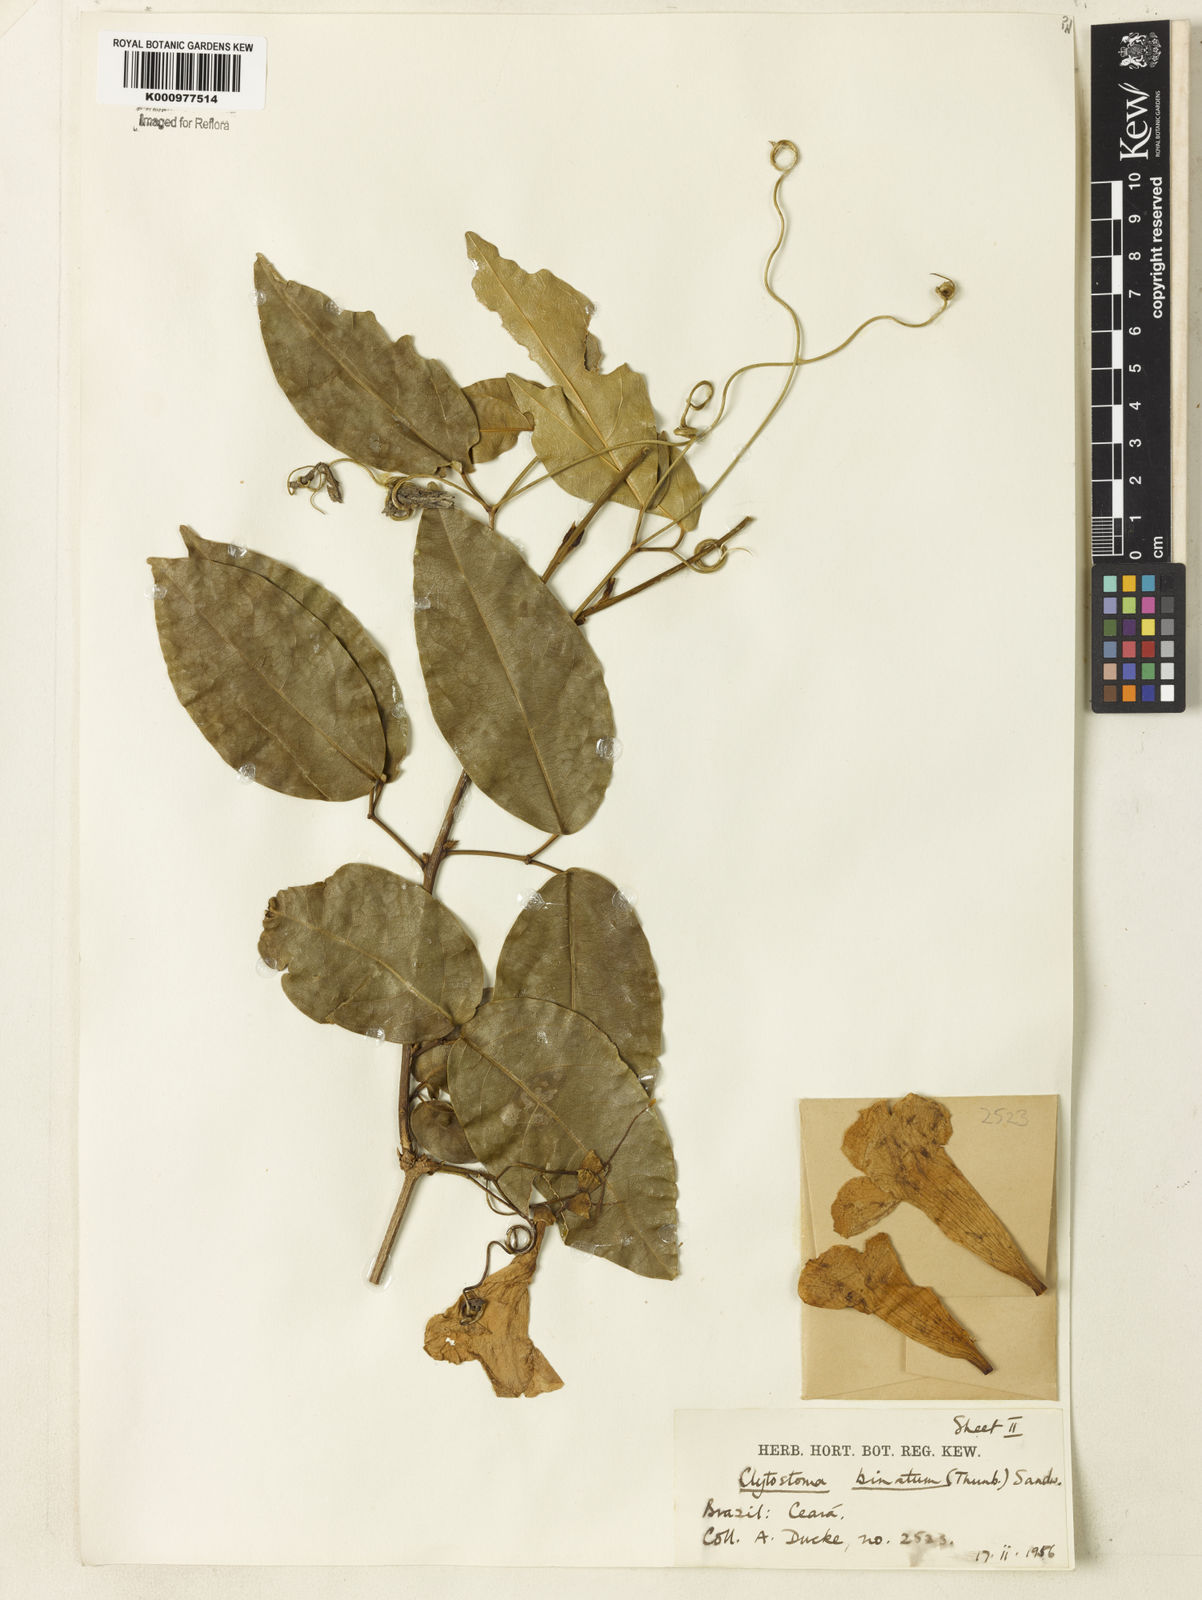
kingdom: Plantae
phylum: Tracheophyta
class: Magnoliopsida
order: Lamiales
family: Bignoniaceae
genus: Bignonia
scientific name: Bignonia binata
